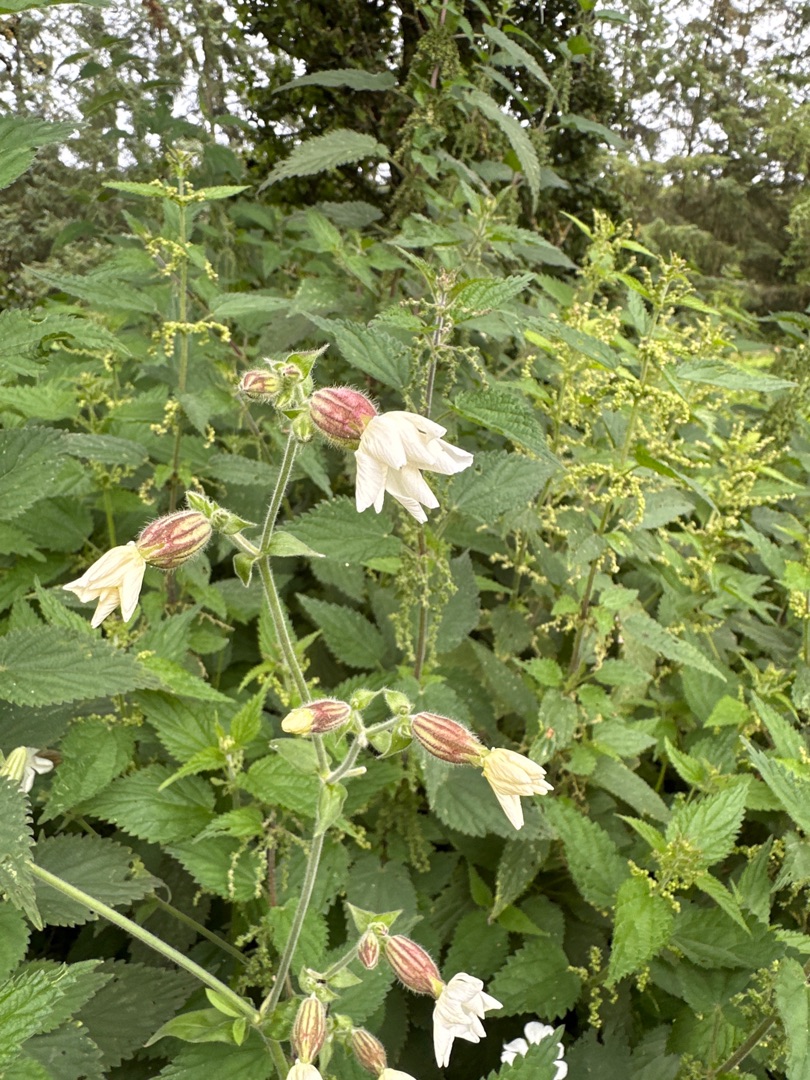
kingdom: Plantae
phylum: Tracheophyta
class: Magnoliopsida
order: Caryophyllales
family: Caryophyllaceae
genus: Silene
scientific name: Silene latifolia
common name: Aftenpragtstjerne
